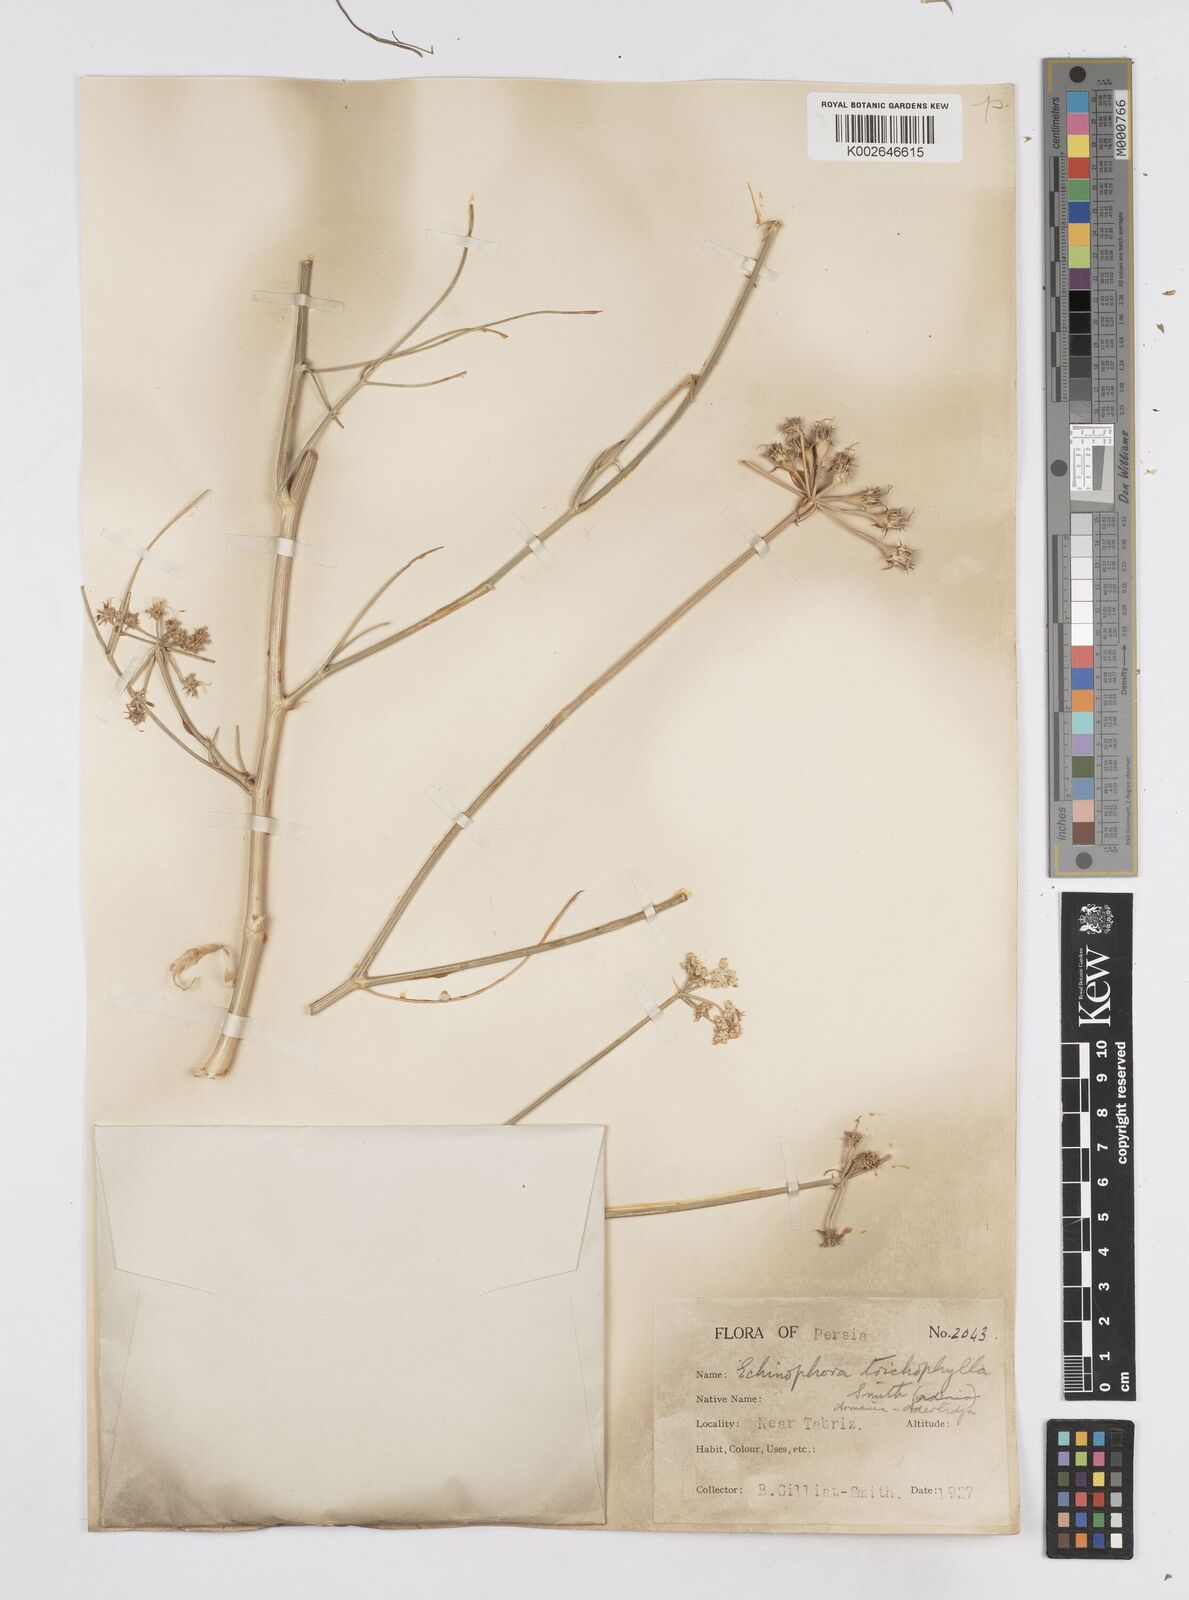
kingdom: Plantae
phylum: Tracheophyta
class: Magnoliopsida
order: Apiales
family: Apiaceae
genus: Echinophora
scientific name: Echinophora trichophylla
